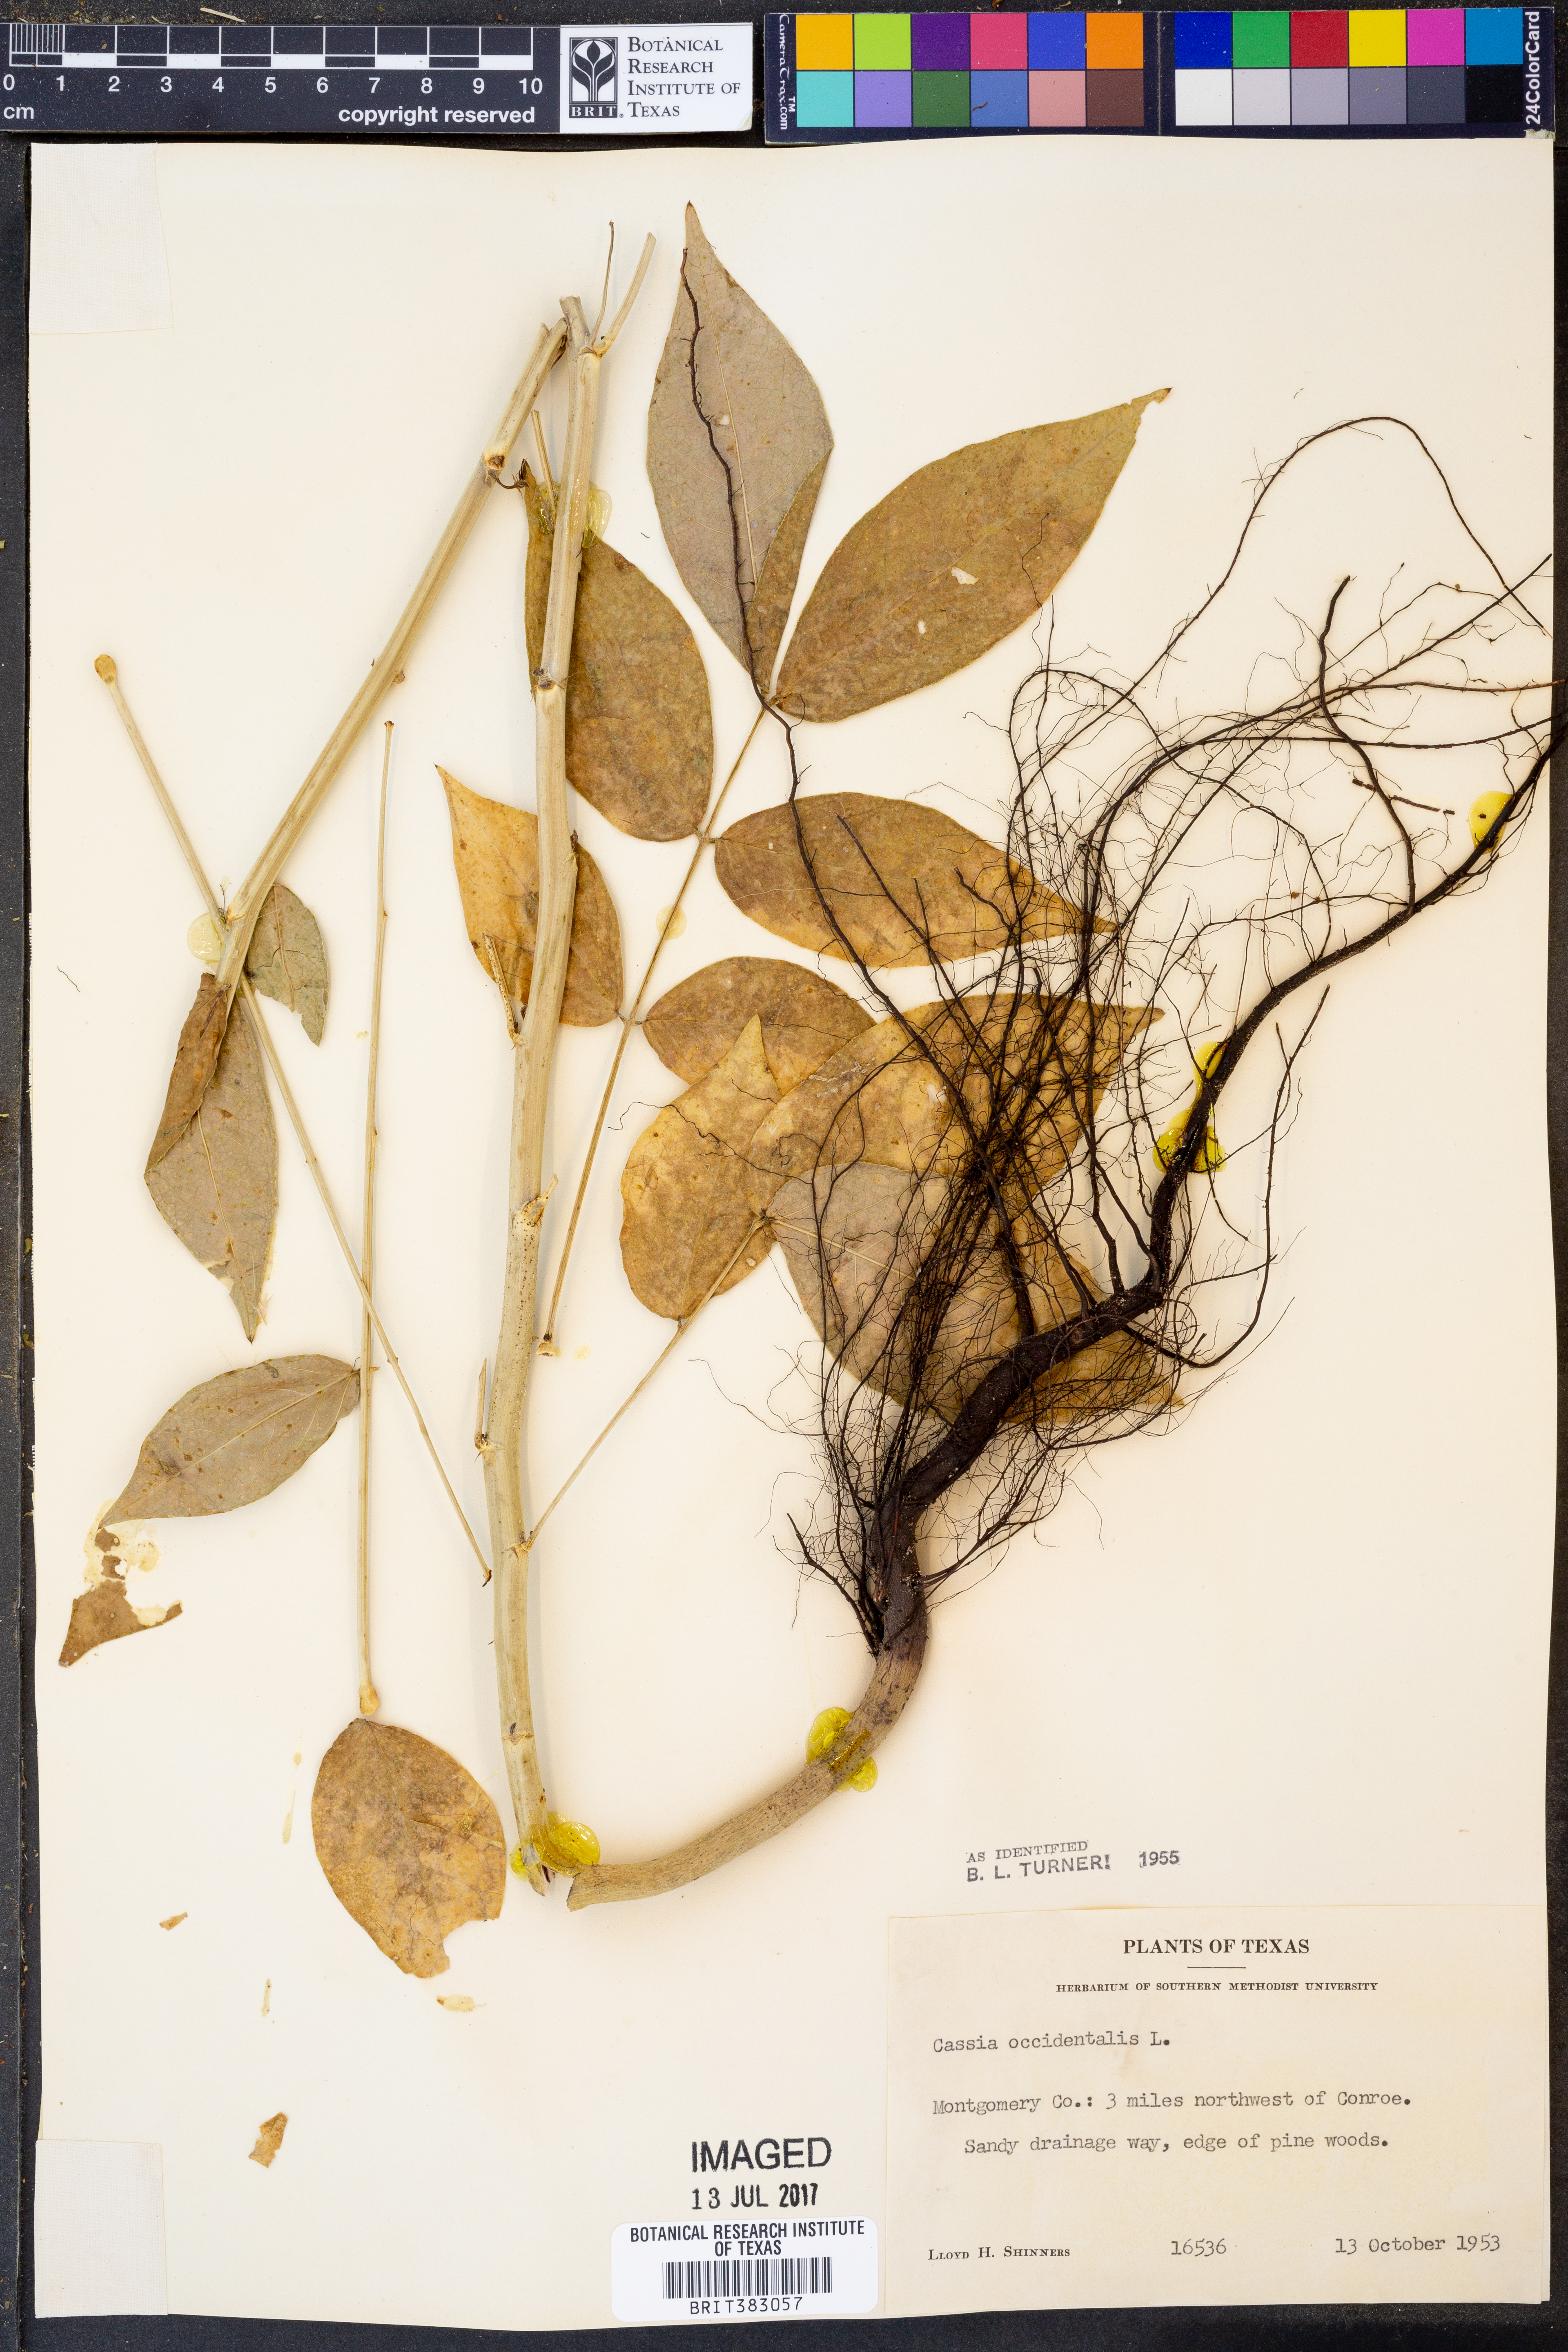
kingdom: Plantae
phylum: Tracheophyta
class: Magnoliopsida
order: Fabales
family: Fabaceae
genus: Senna
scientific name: Senna occidentalis
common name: Septicweed
